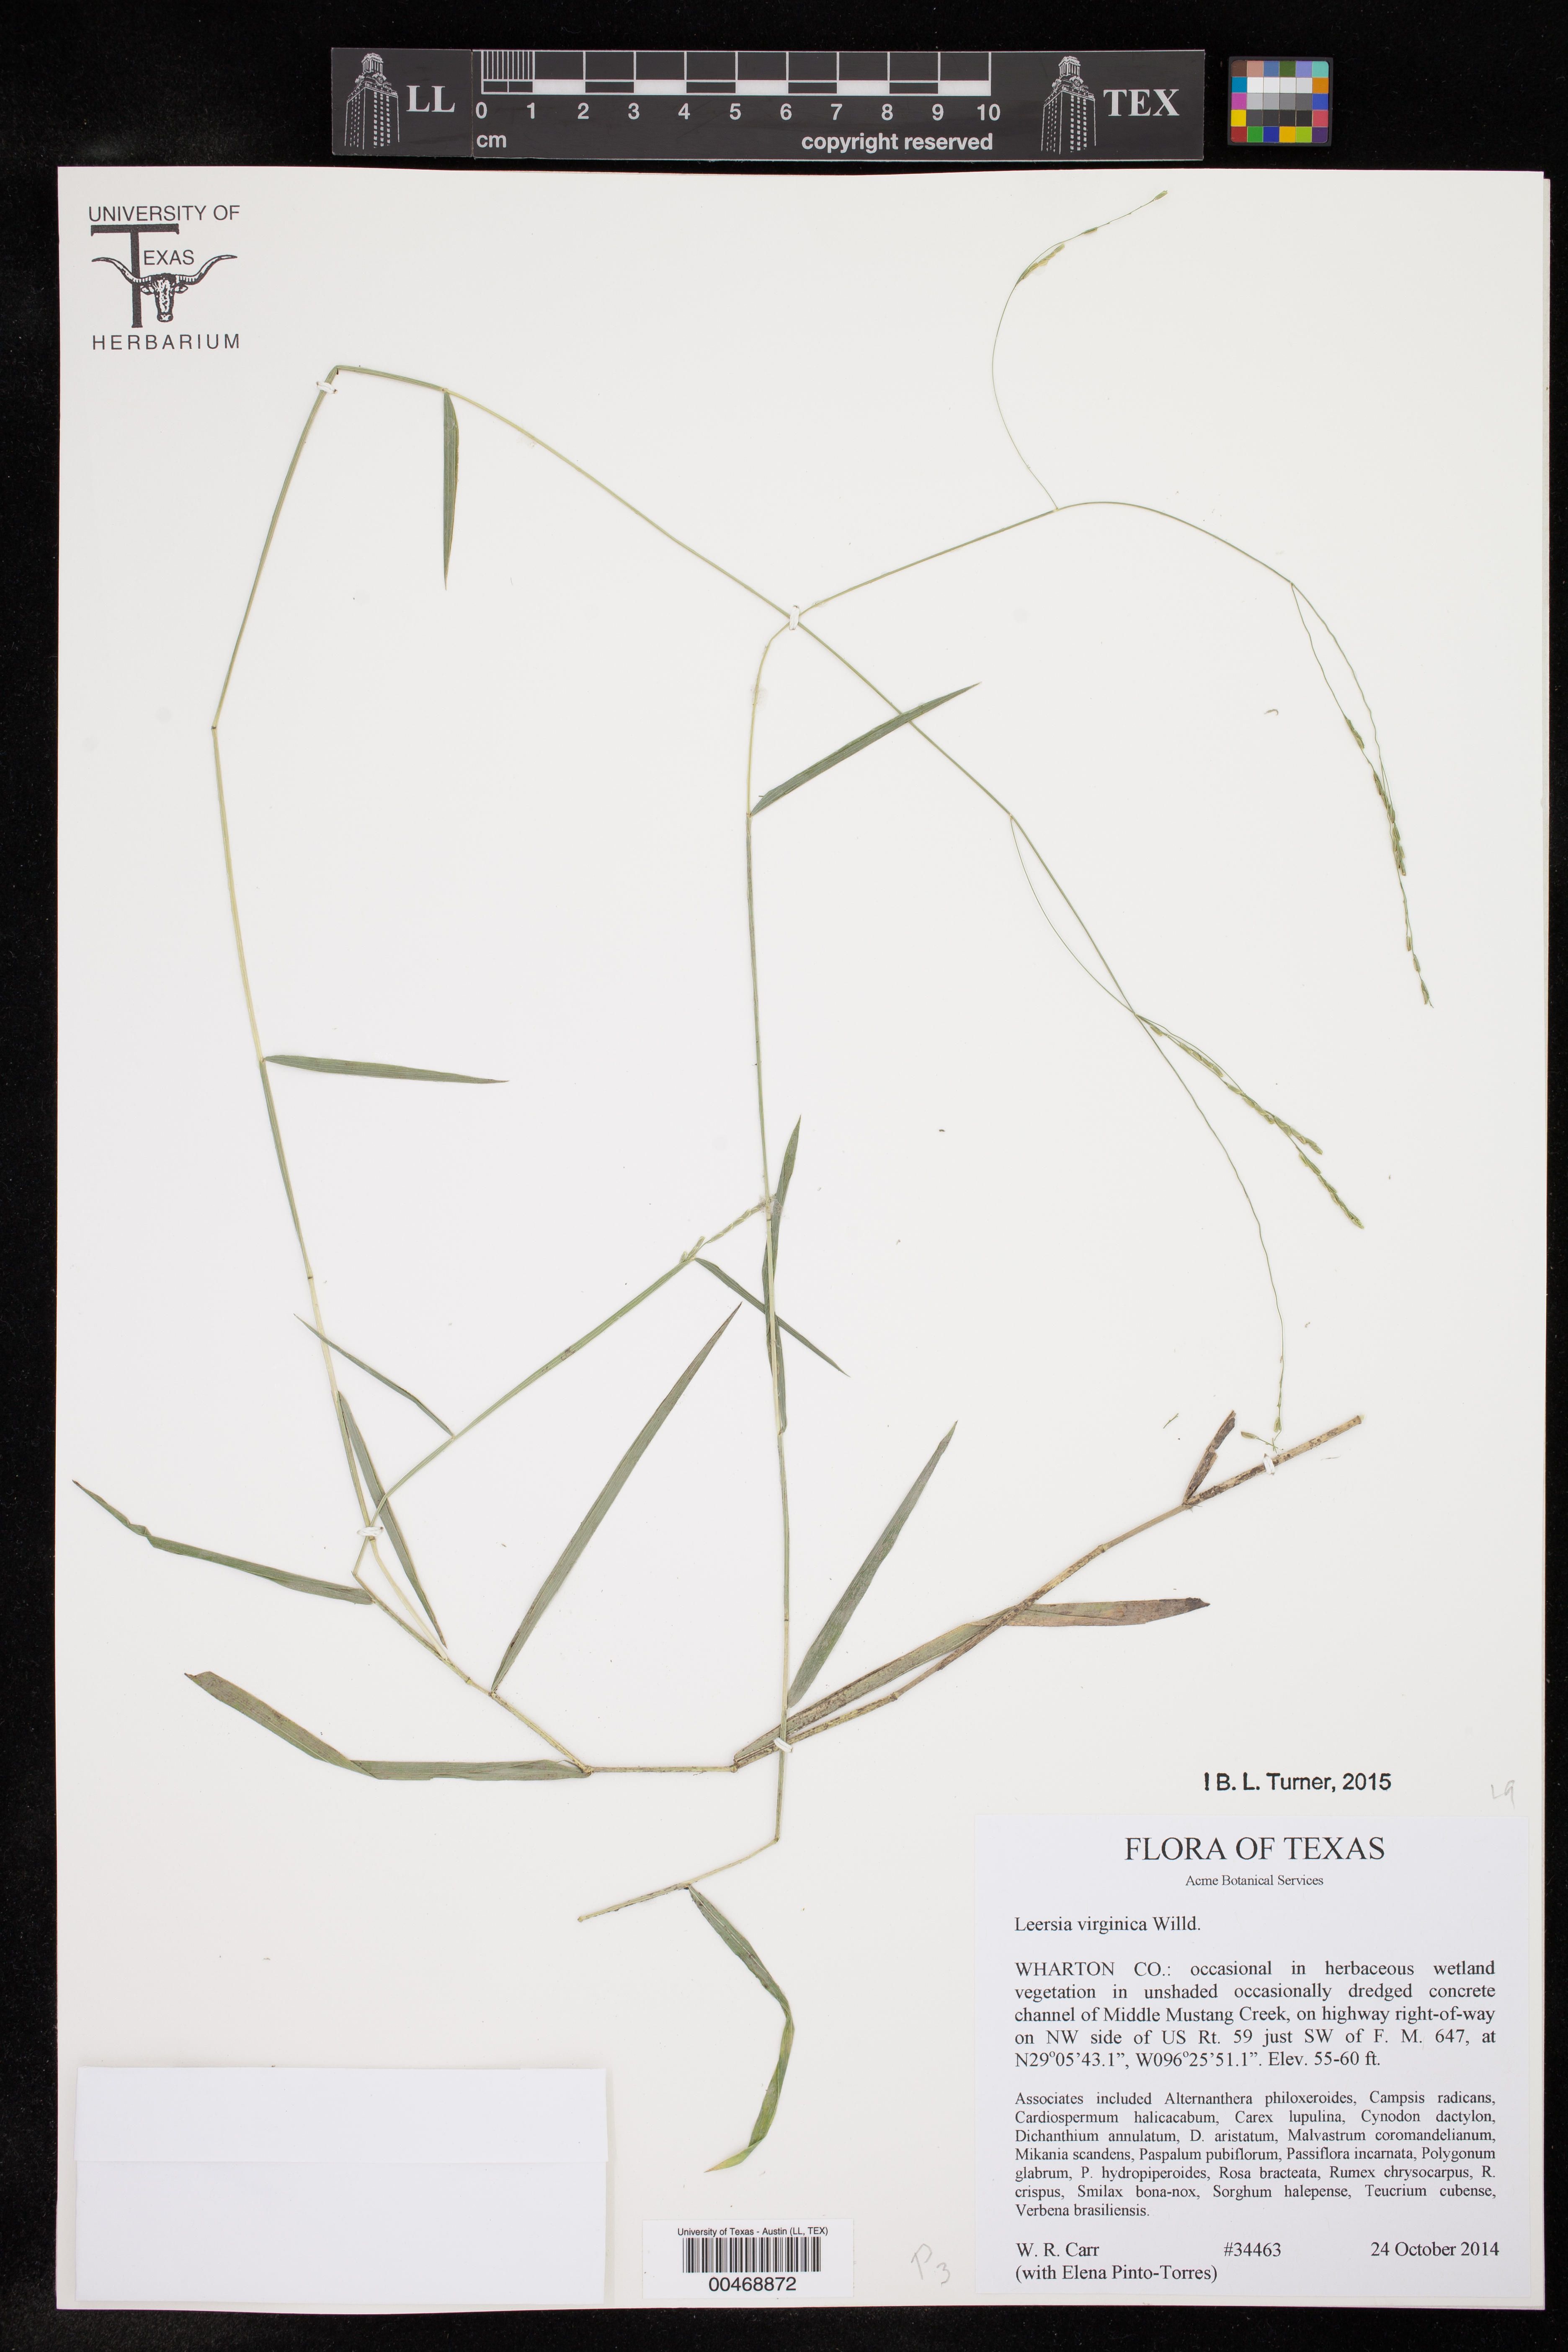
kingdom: Plantae
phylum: Tracheophyta
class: Liliopsida
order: Poales
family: Poaceae
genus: Leersia
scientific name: Leersia virginica
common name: White cutgrass
